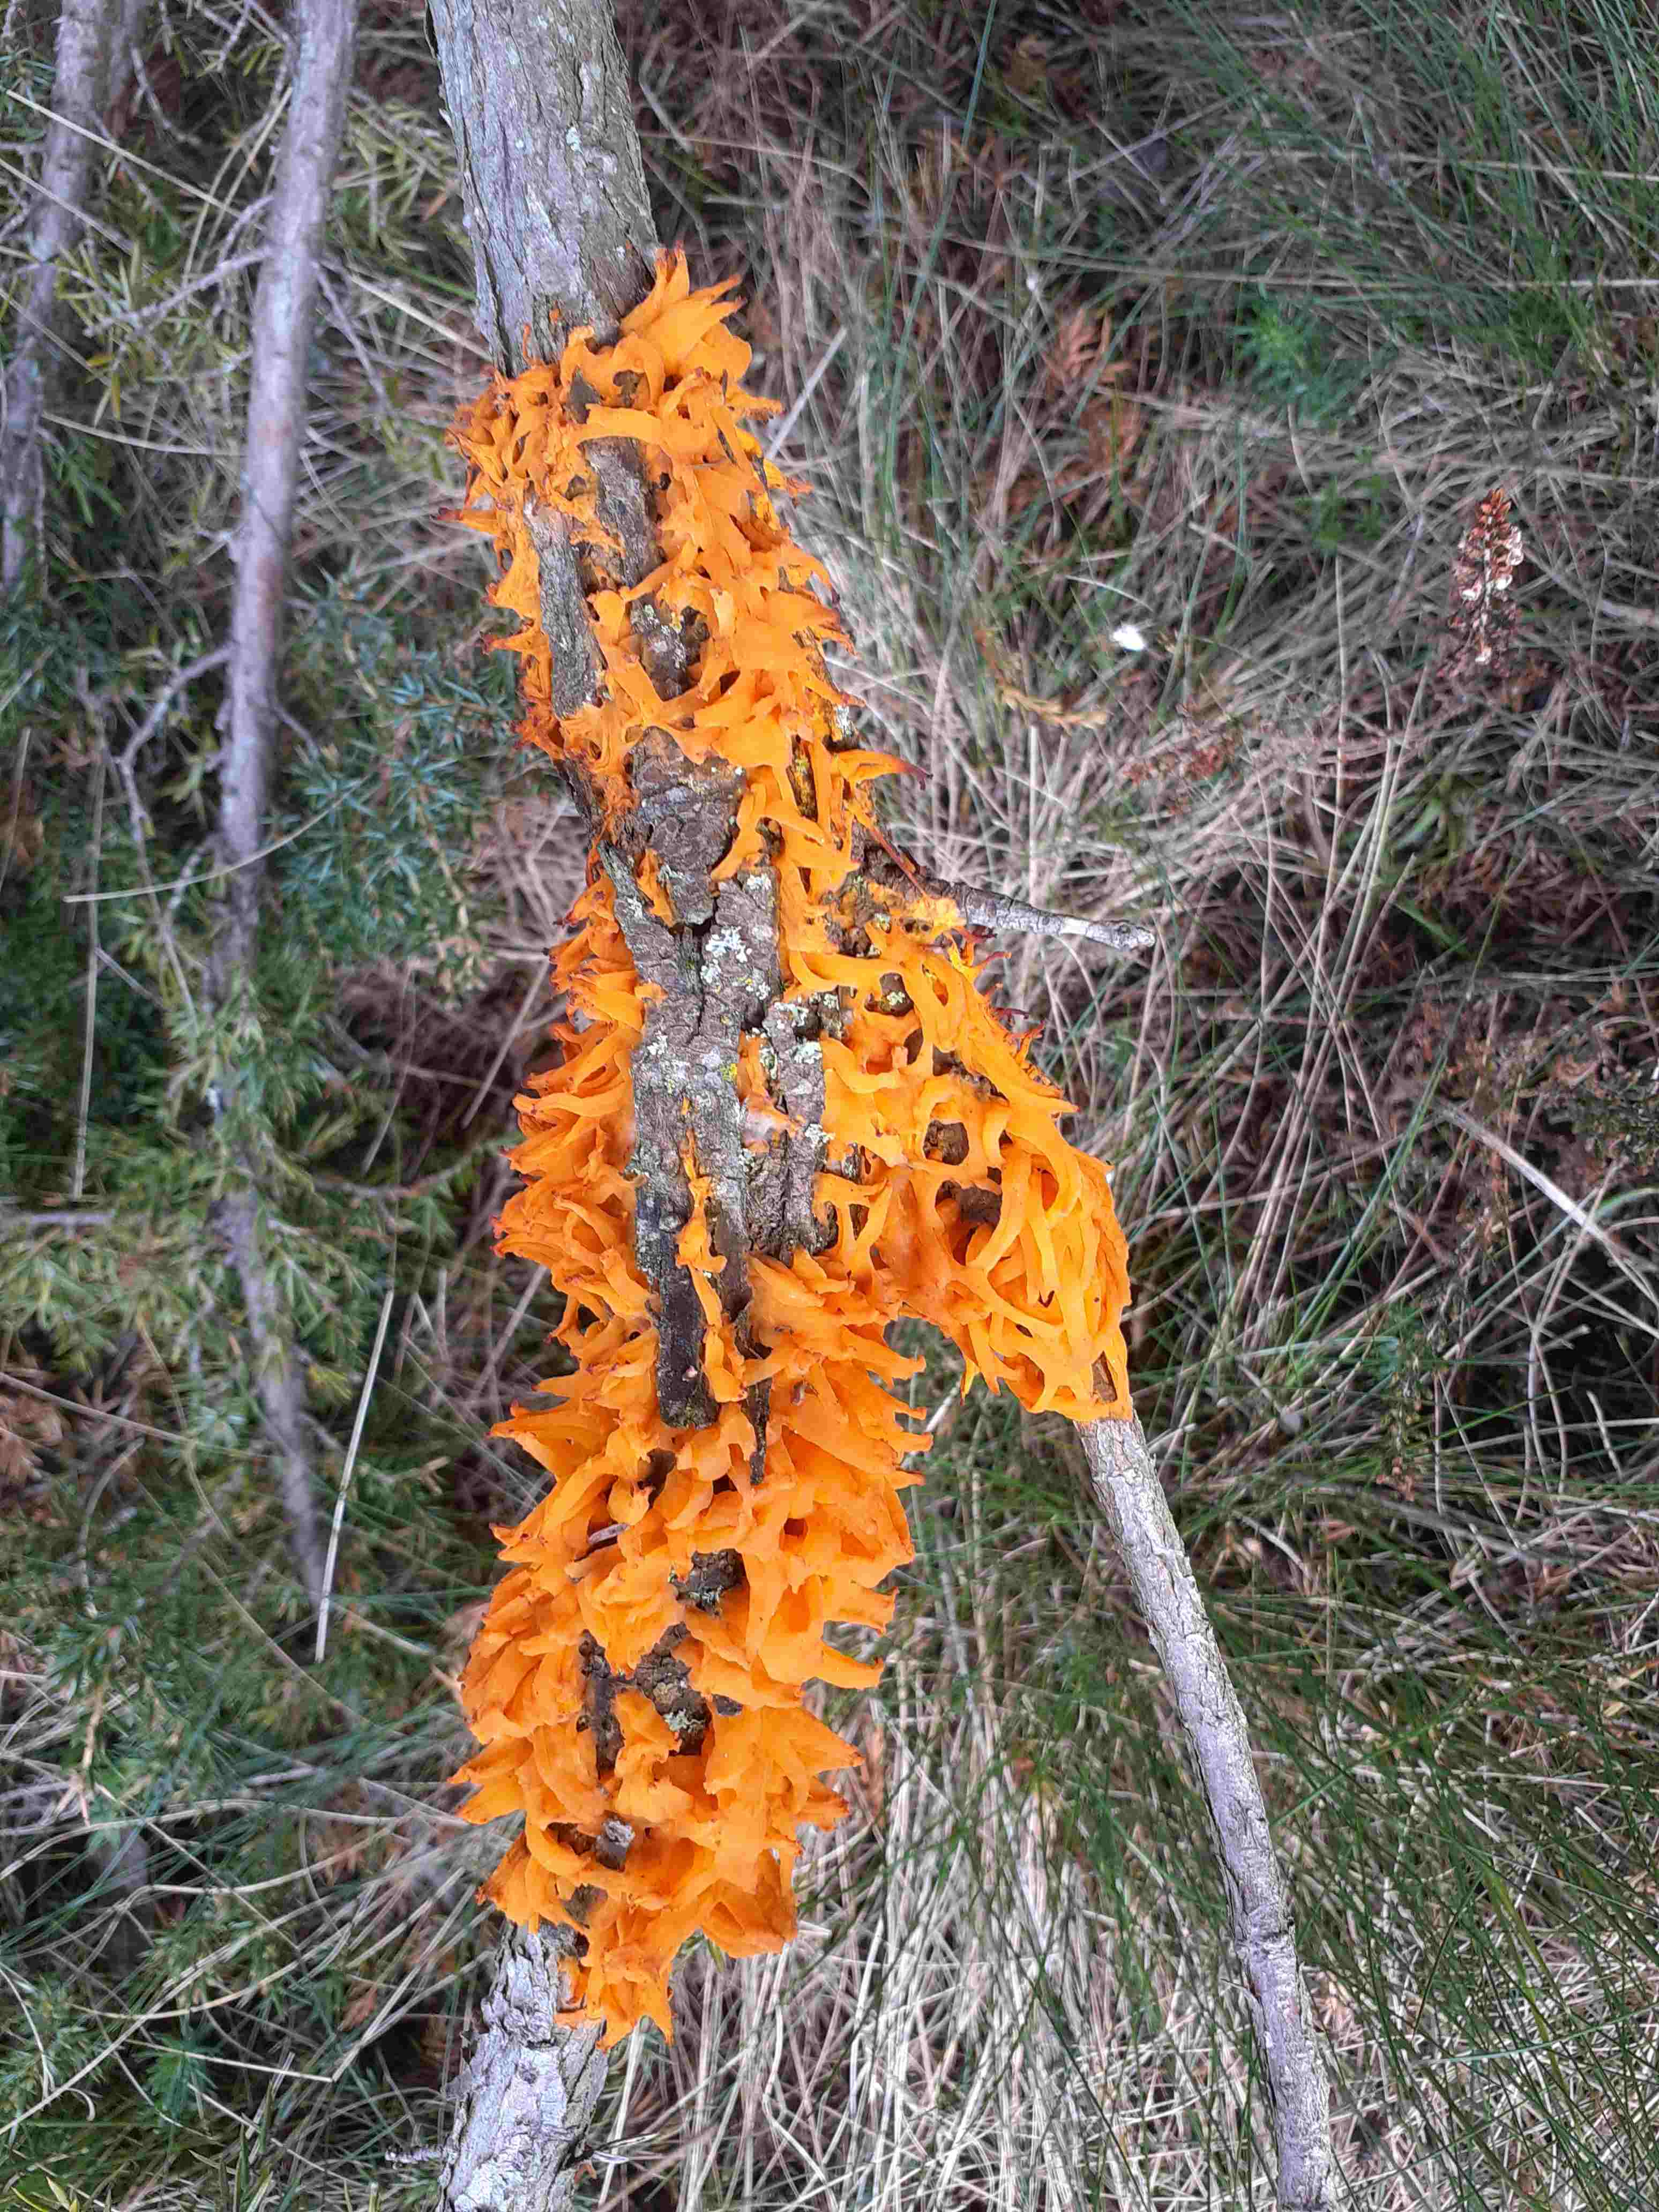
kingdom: Fungi
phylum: Basidiomycota
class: Pucciniomycetes
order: Pucciniales
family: Gymnosporangiaceae
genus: Gymnosporangium
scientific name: Gymnosporangium clavariiforme
